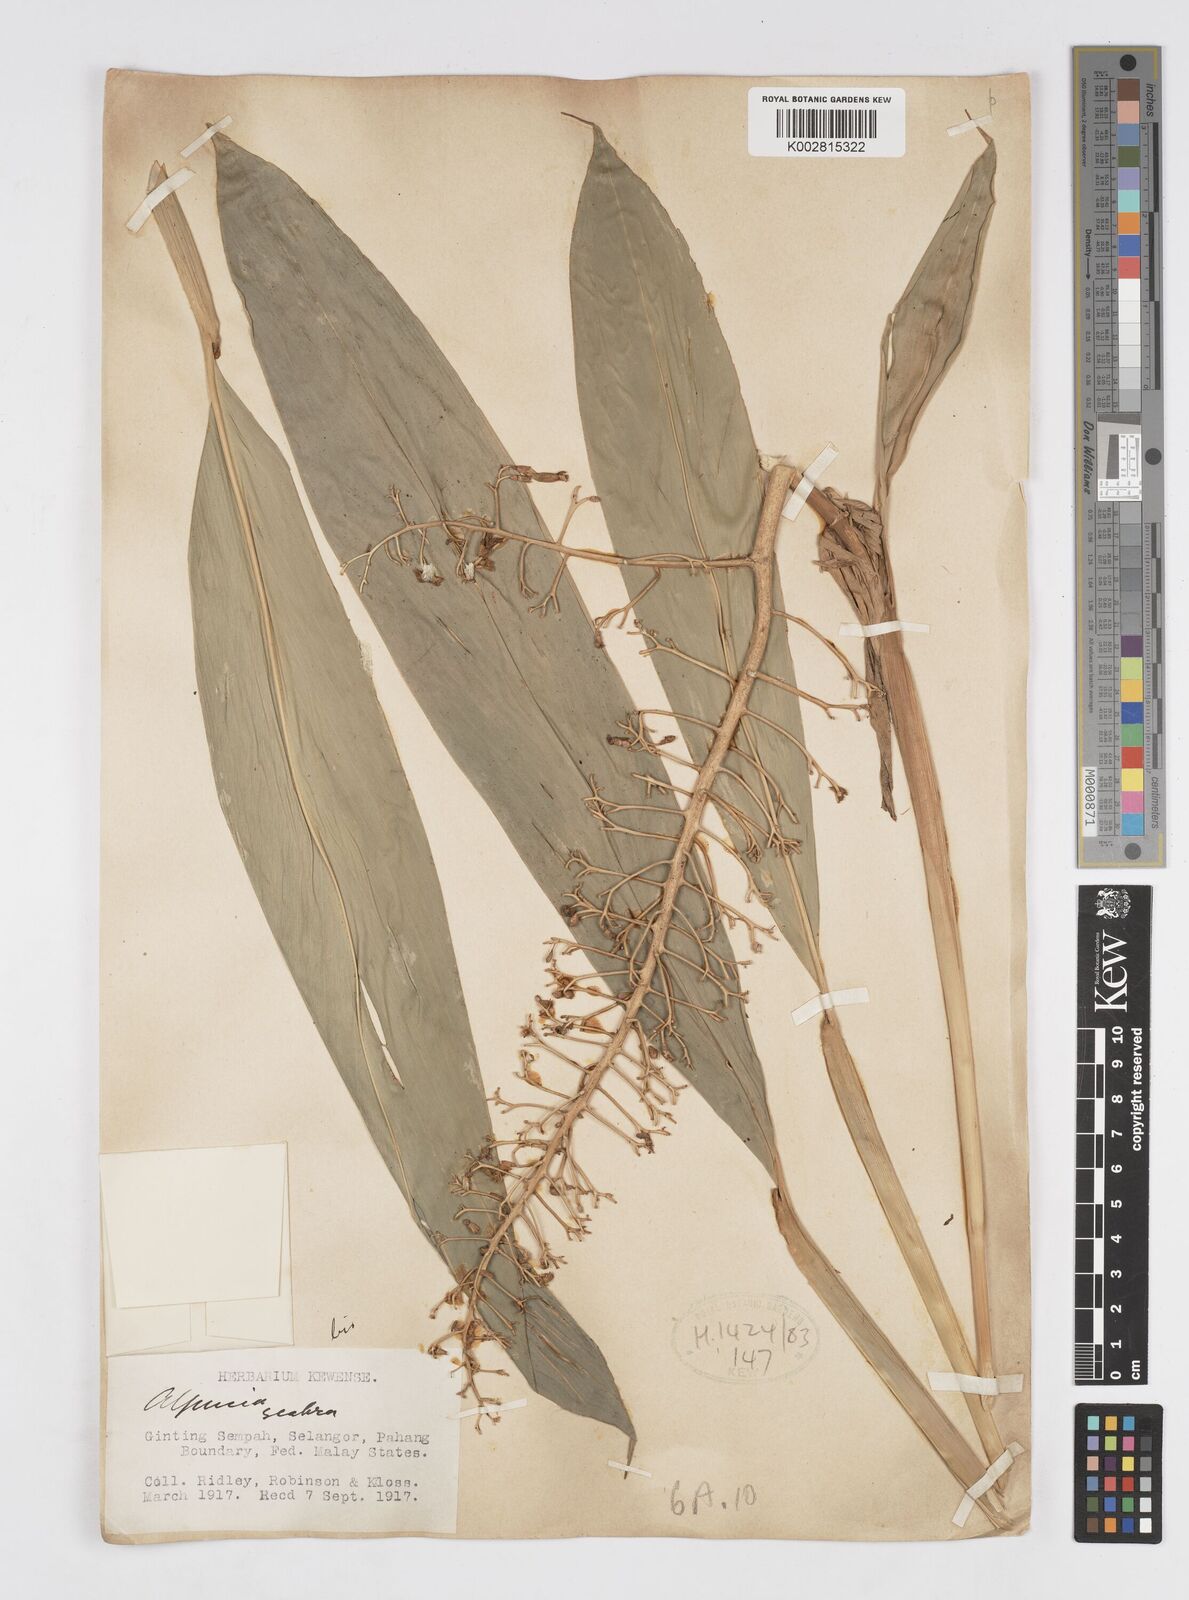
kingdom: Plantae
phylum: Tracheophyta
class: Liliopsida
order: Zingiberales
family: Zingiberaceae
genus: Alpinia
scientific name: Alpinia scabra
